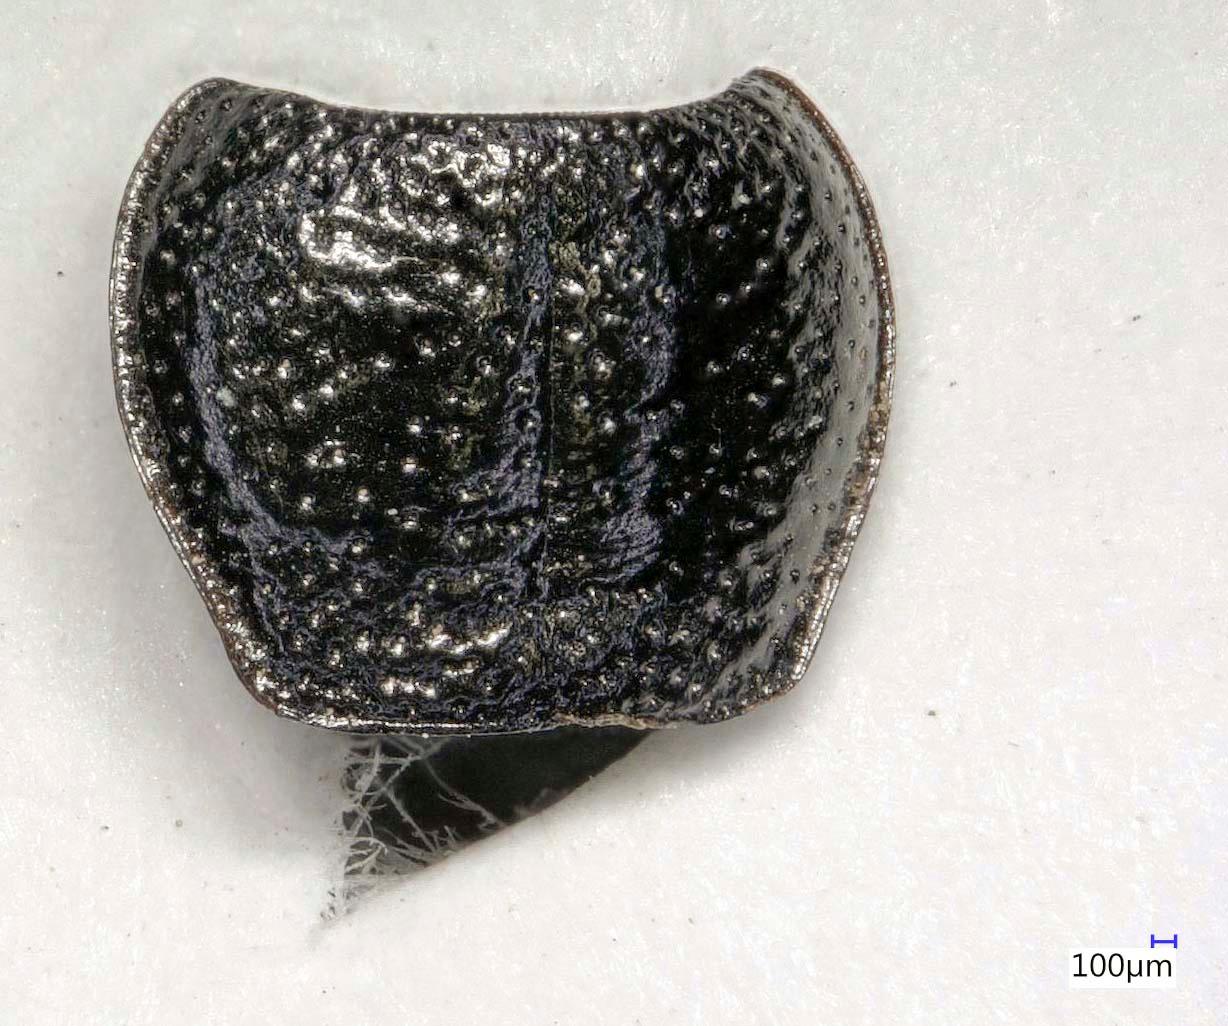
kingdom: Animalia
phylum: Arthropoda
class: Insecta
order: Coleoptera
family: Carabidae
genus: Dicheirus
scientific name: Dicheirus dilatatus
